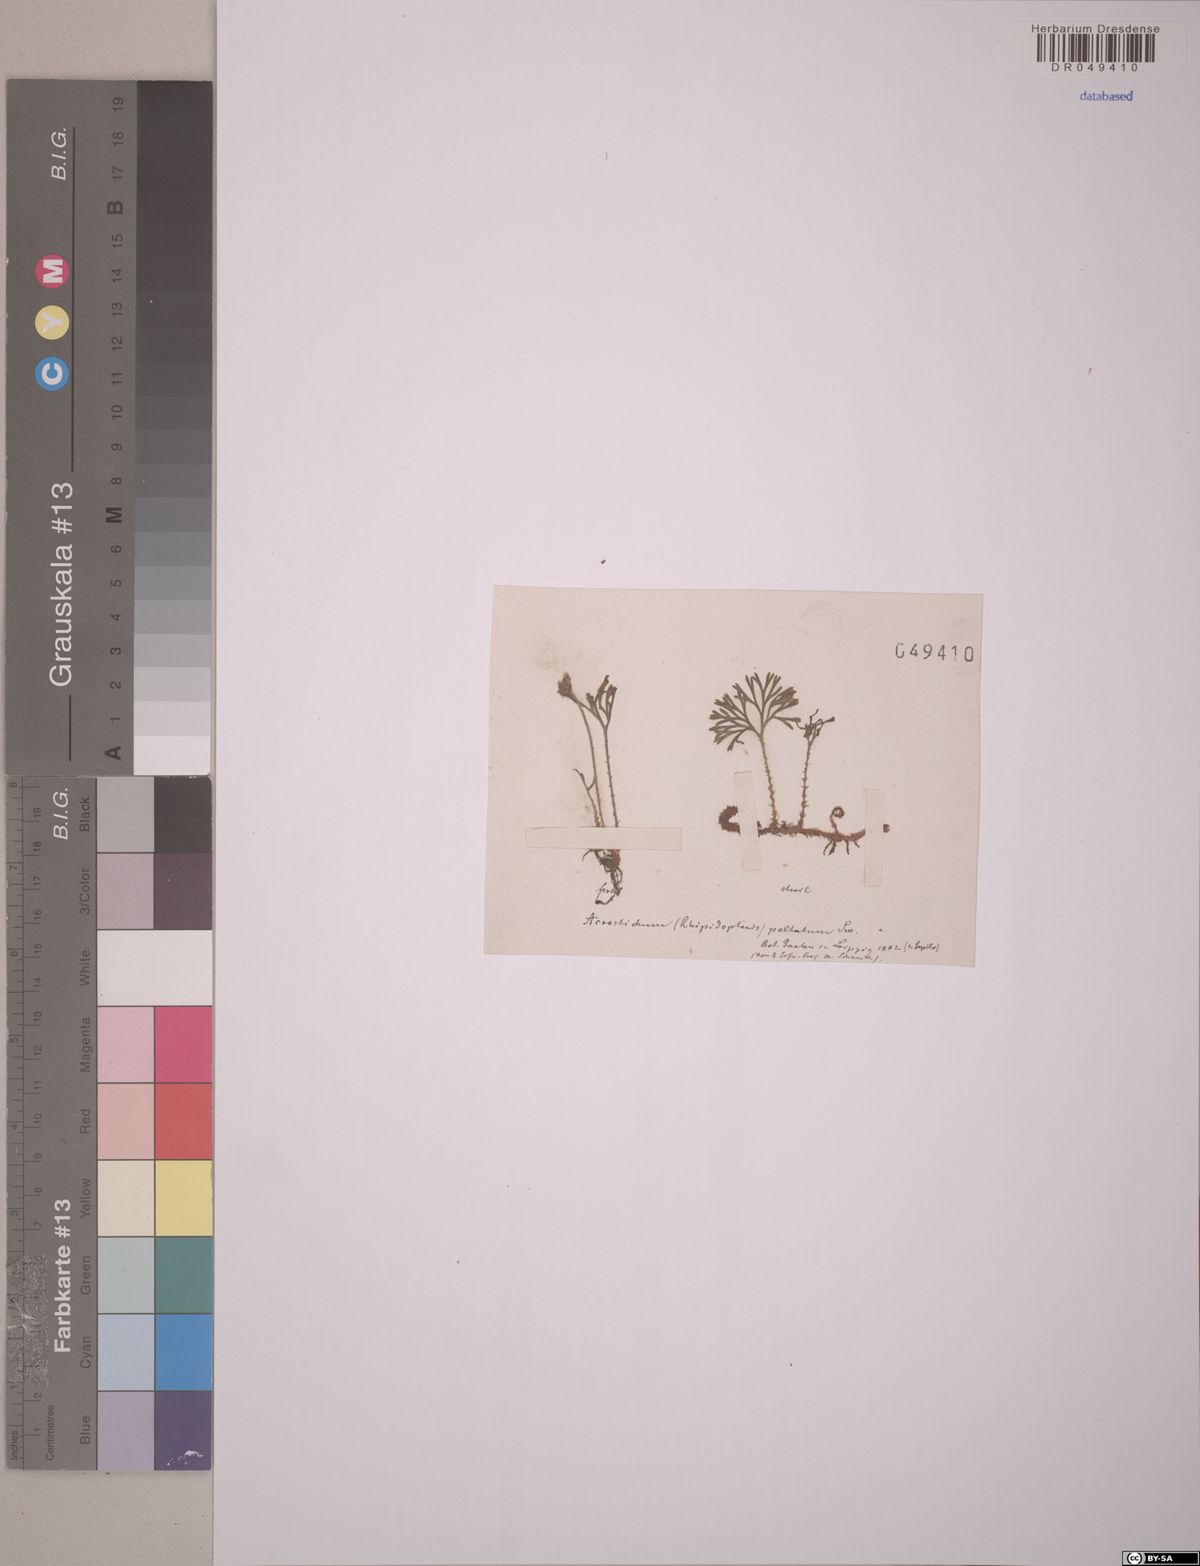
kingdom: Plantae
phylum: Tracheophyta
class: Polypodiopsida
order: Polypodiales
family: Dryopteridaceae
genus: Elaphoglossum
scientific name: Elaphoglossum peltatum
